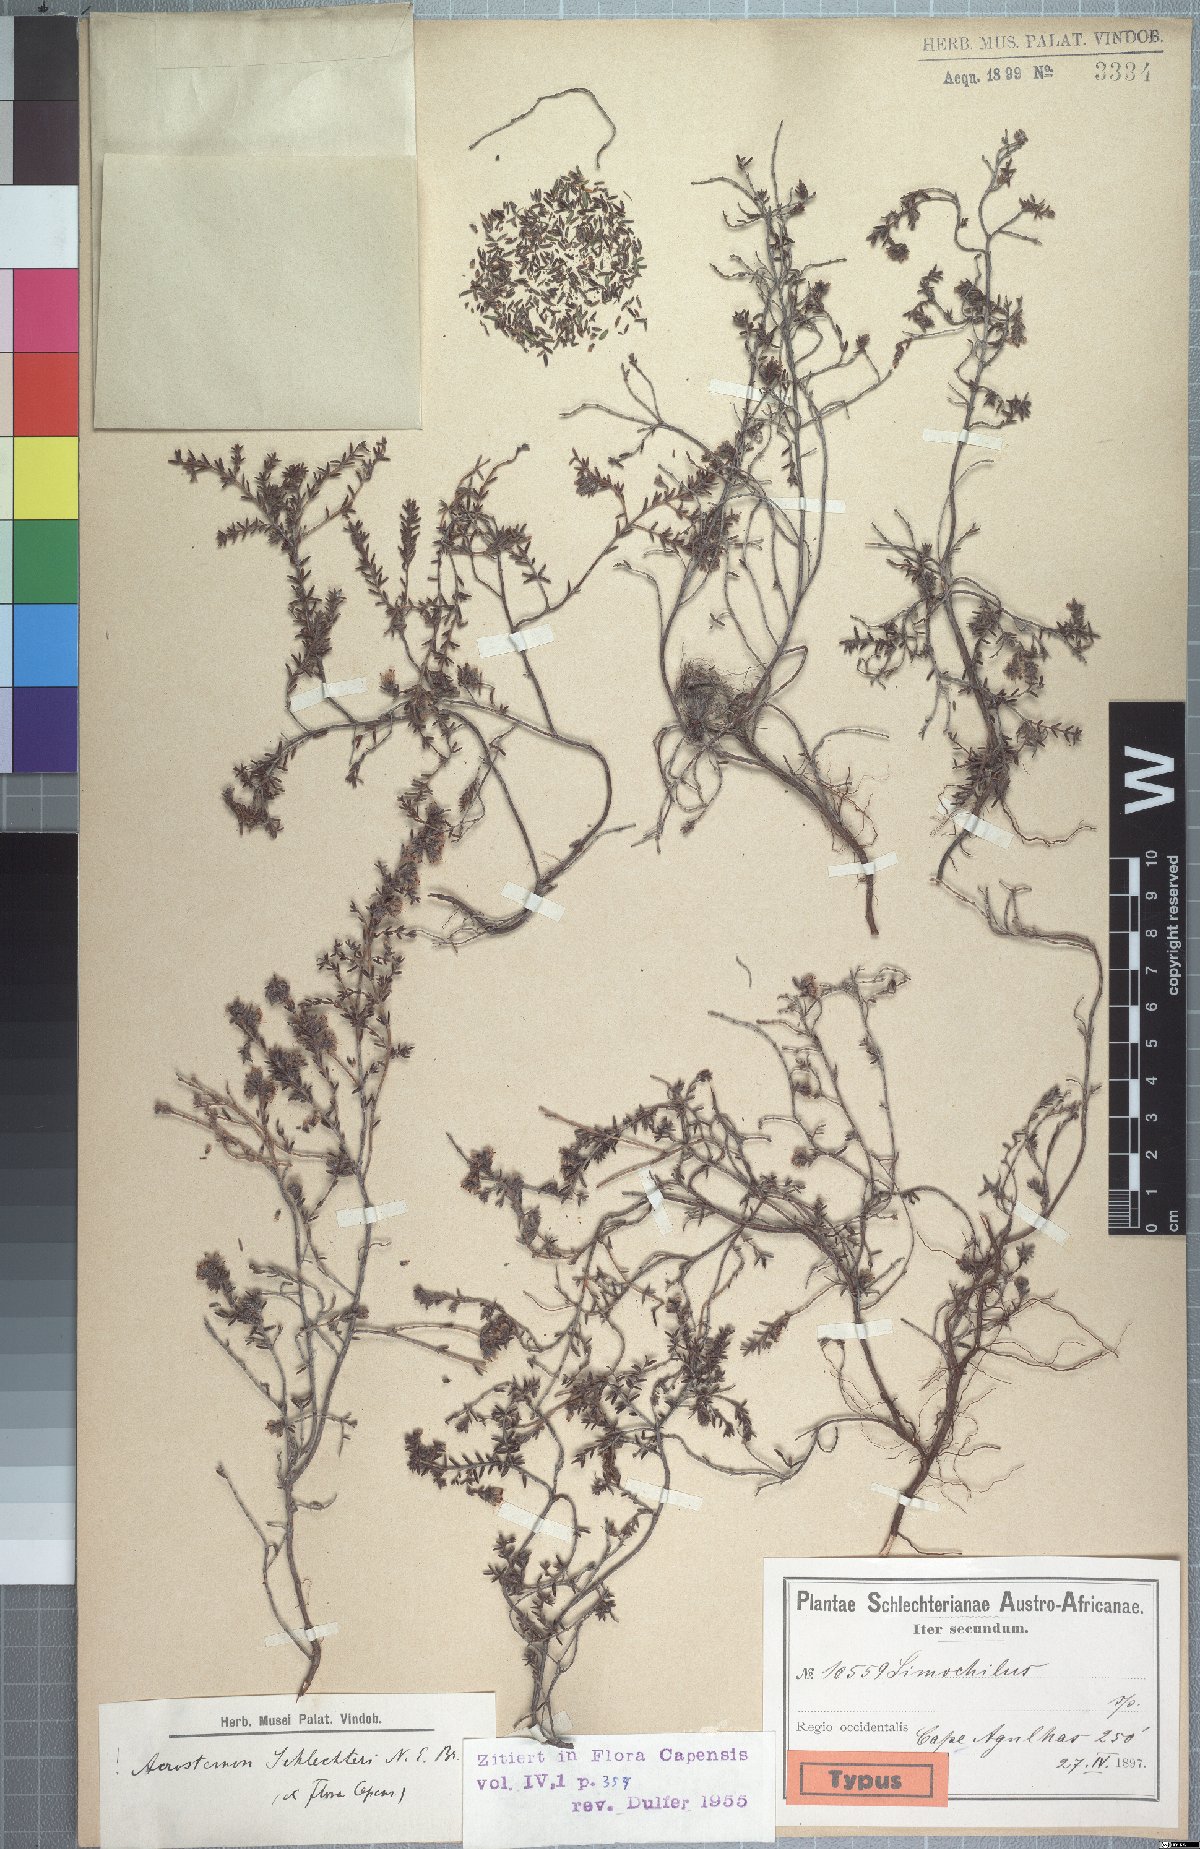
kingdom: Plantae
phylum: Tracheophyta
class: Magnoliopsida
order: Ericales
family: Ericaceae
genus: Erica
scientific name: Erica radicans
